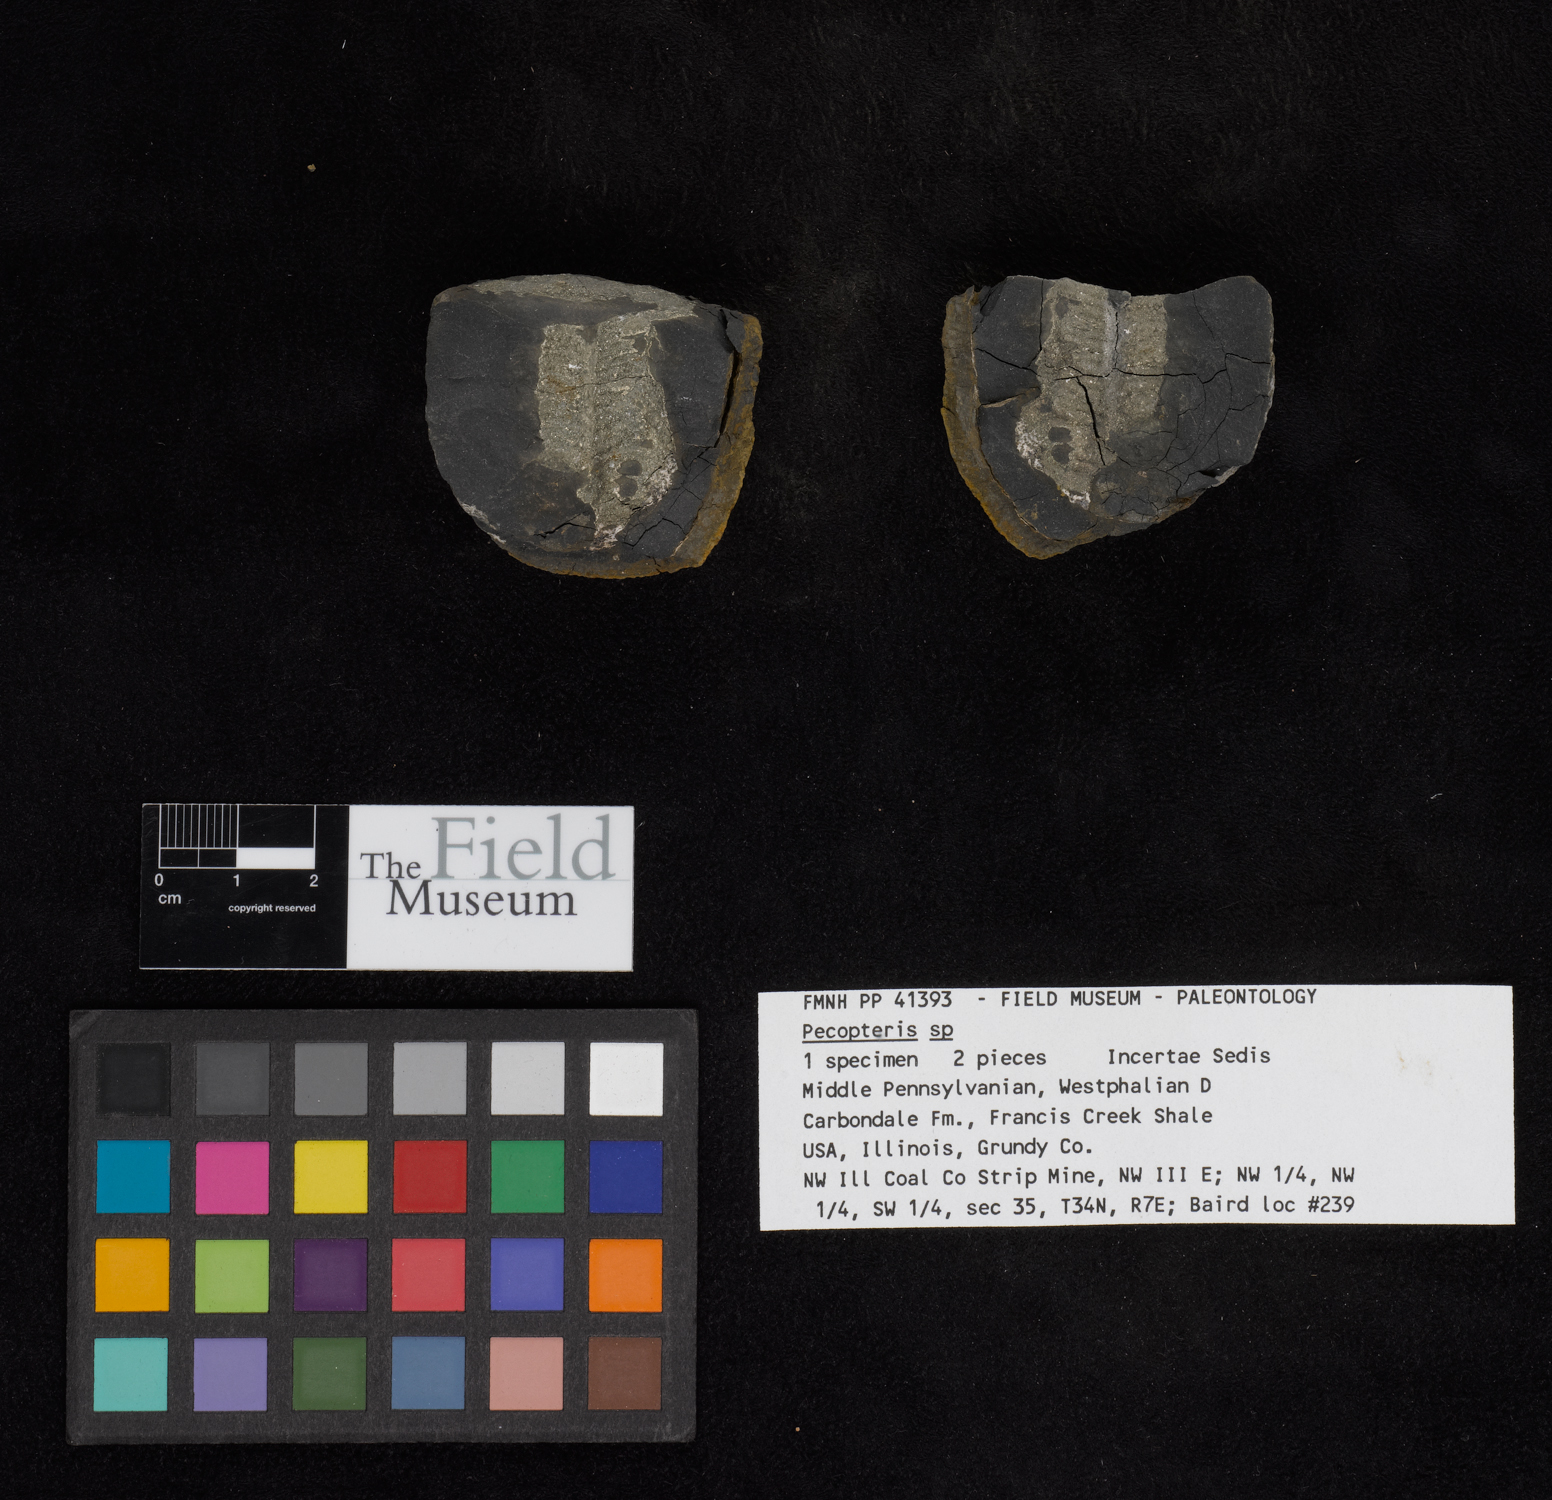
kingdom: Plantae
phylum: Tracheophyta
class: Polypodiopsida
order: Marattiales
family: Asterothecaceae
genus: Pecopteris
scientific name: Pecopteris
